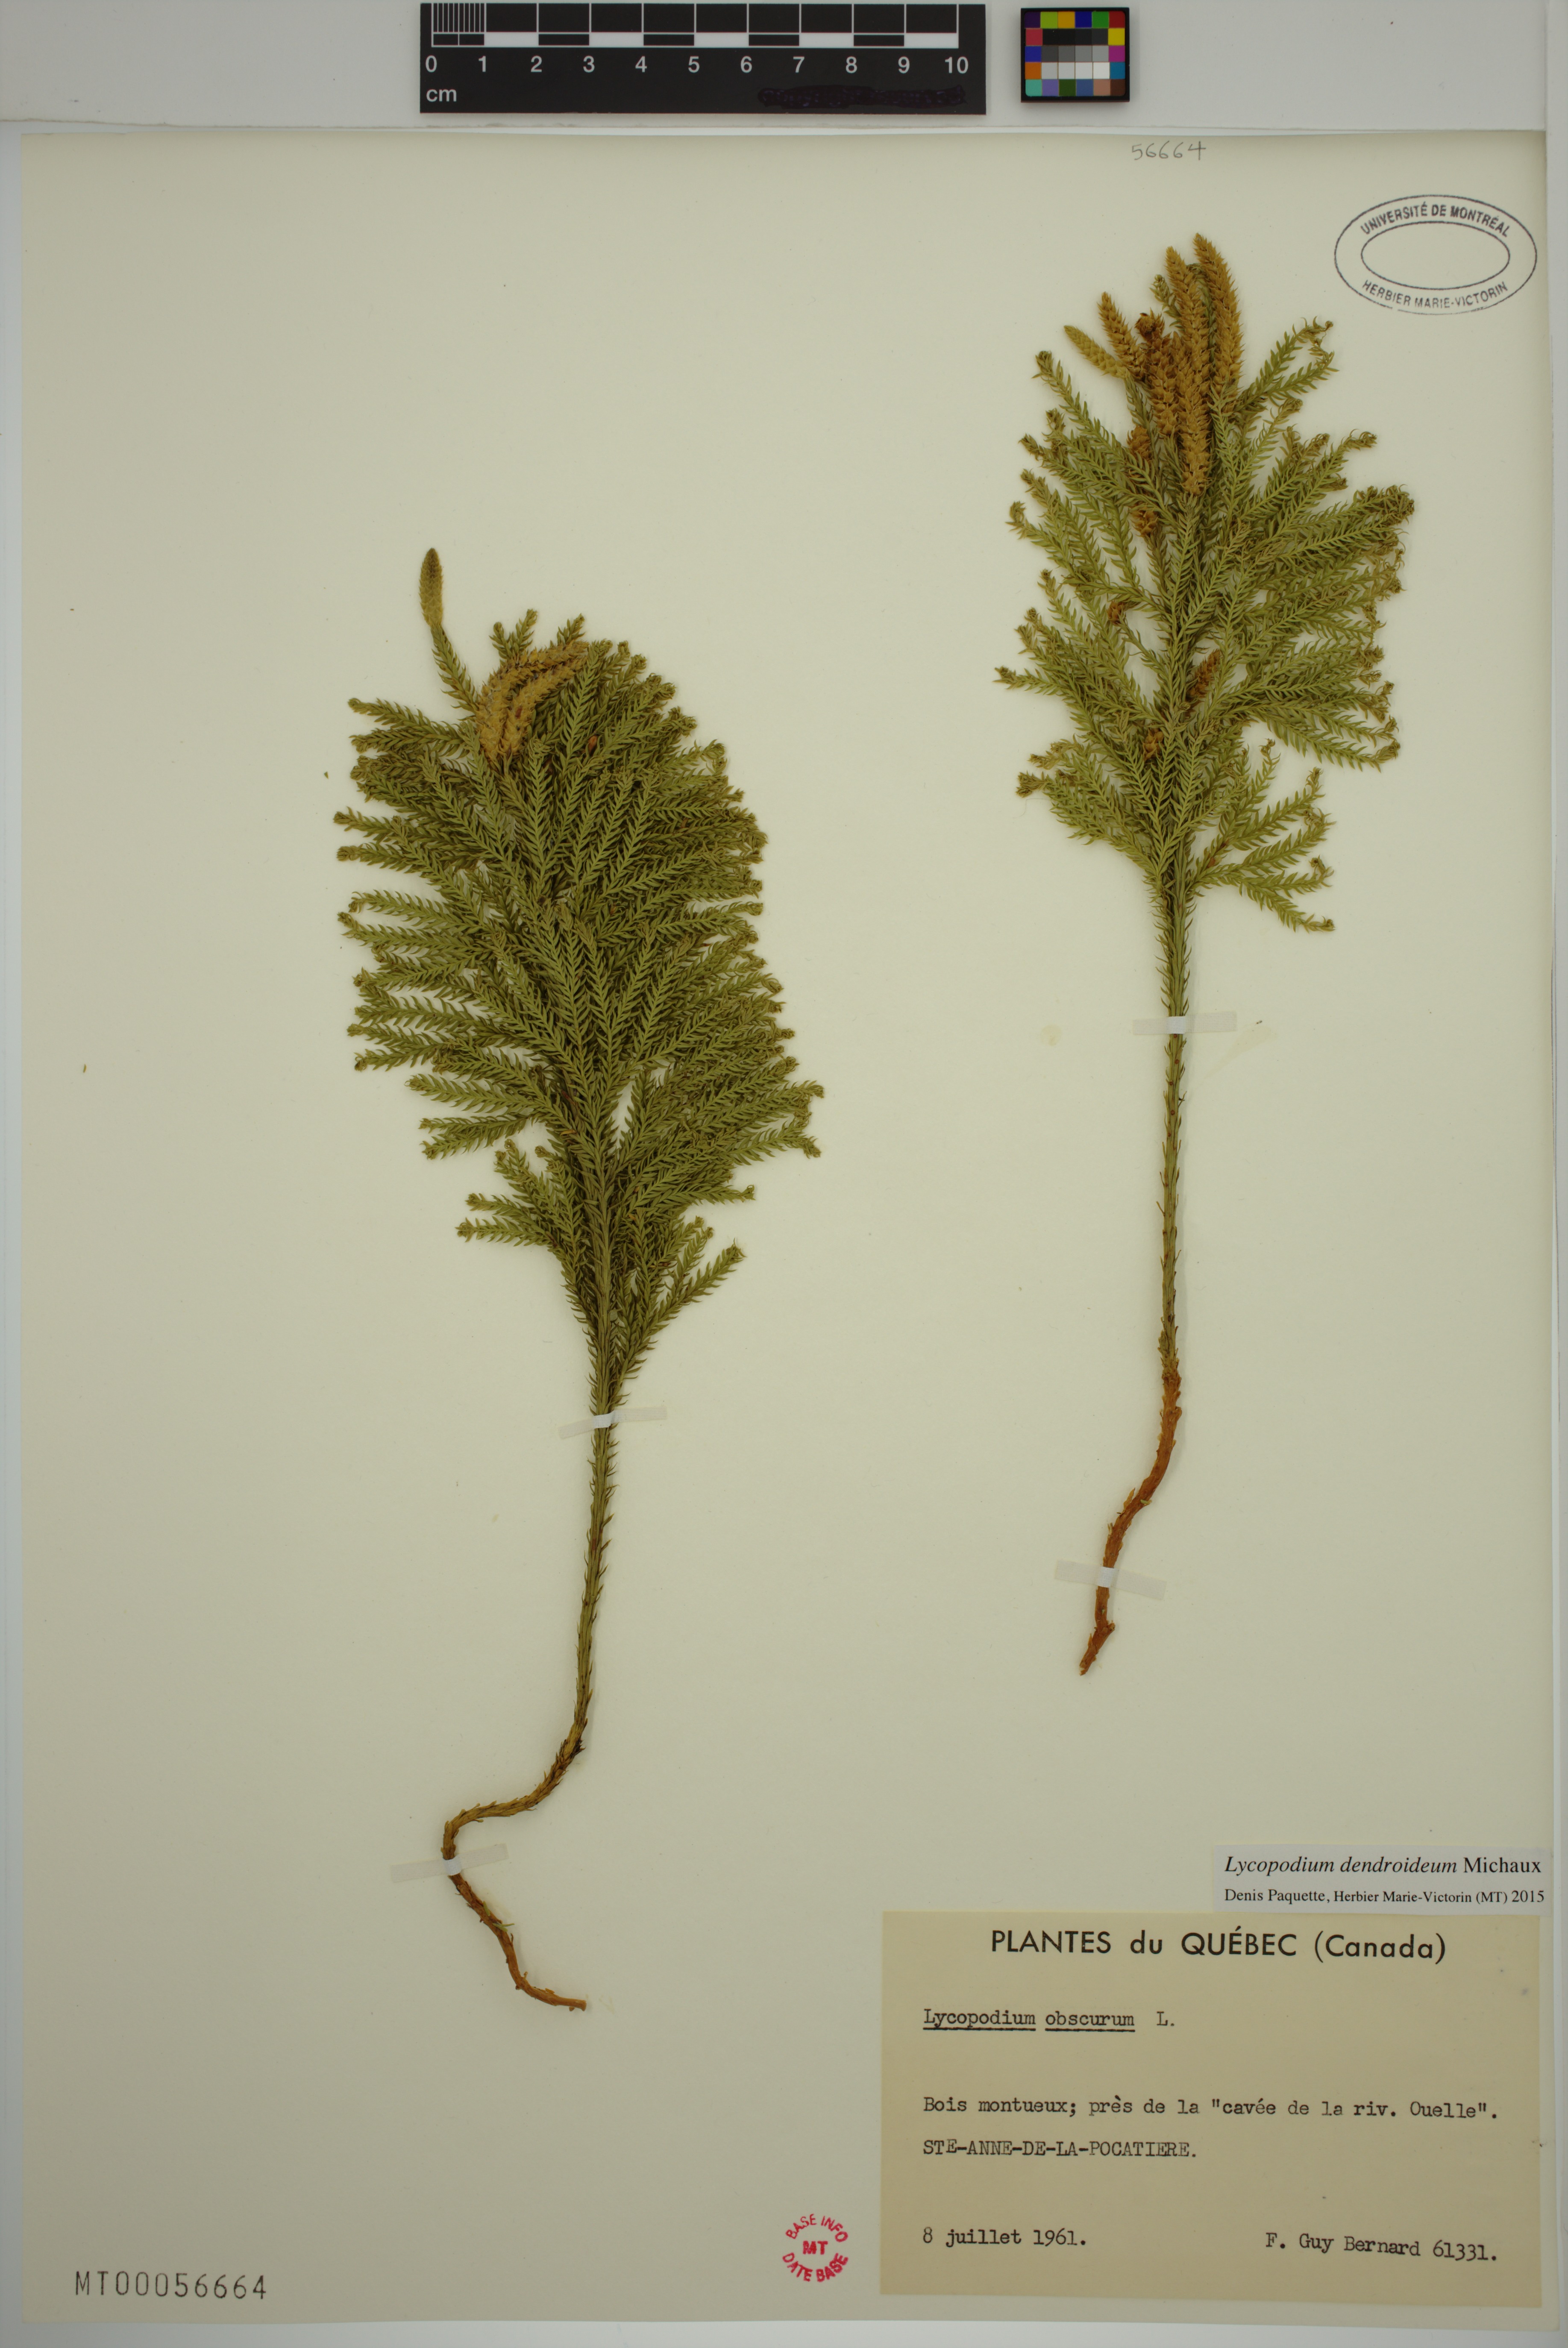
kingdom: Plantae
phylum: Tracheophyta
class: Lycopodiopsida
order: Lycopodiales
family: Lycopodiaceae
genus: Dendrolycopodium
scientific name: Dendrolycopodium dendroideum
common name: Northern tree-clubmoss
